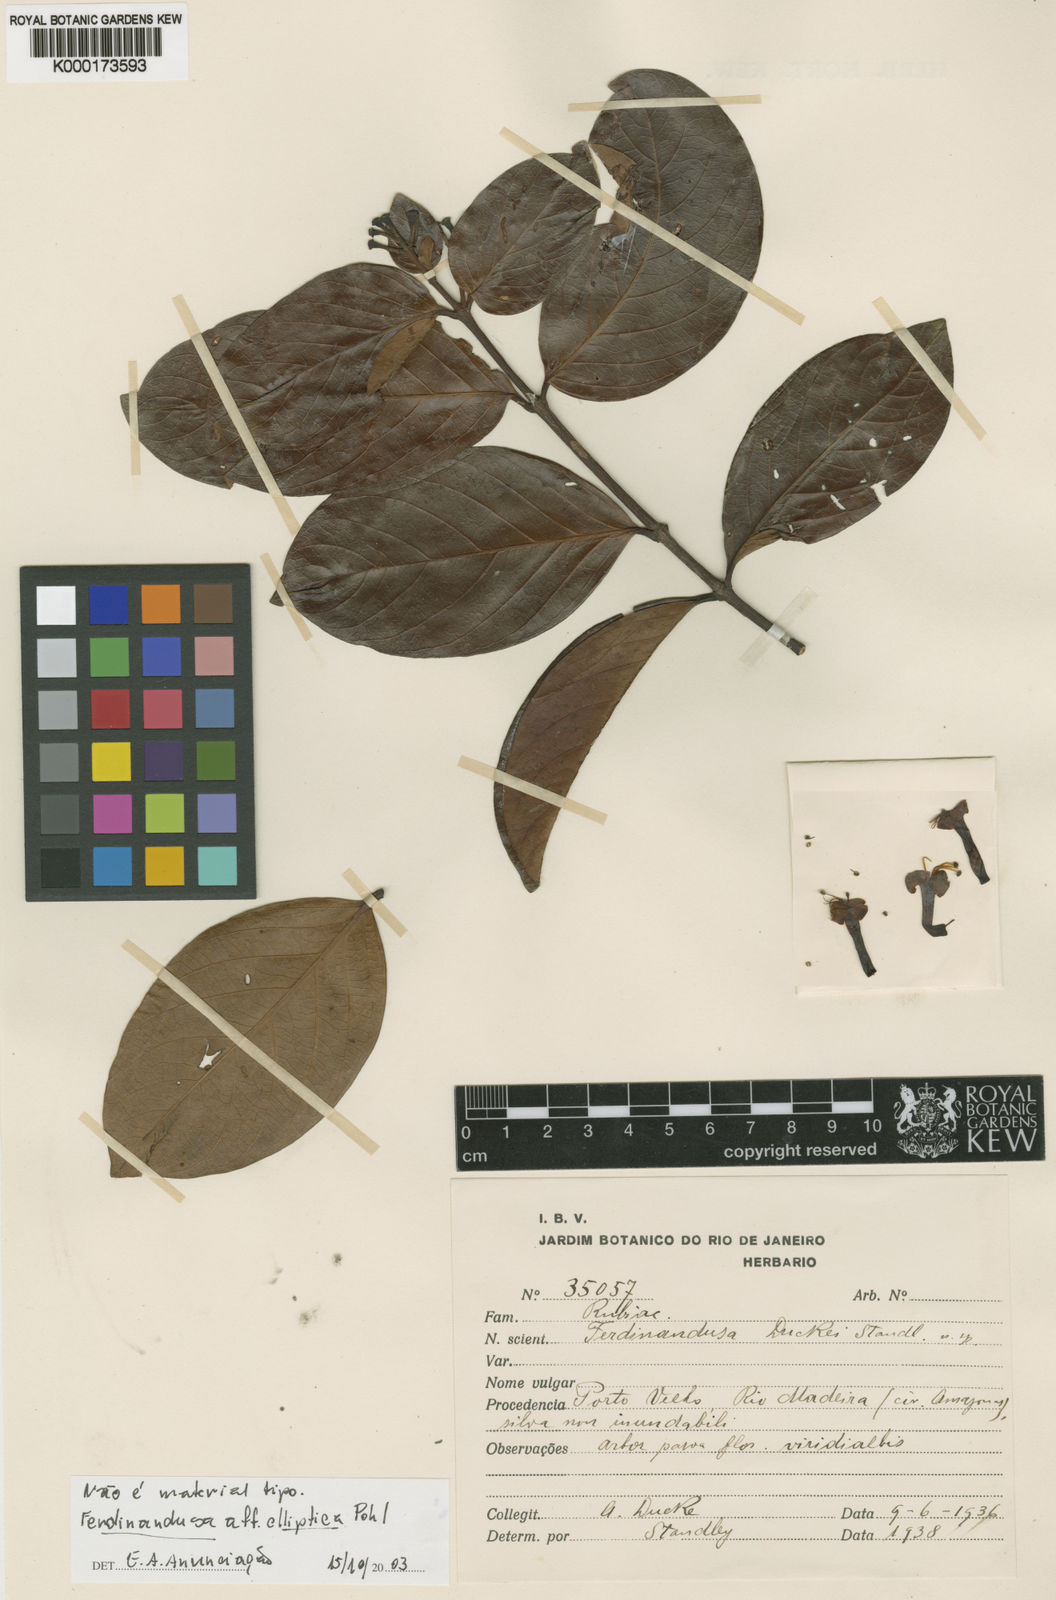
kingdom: Plantae
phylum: Tracheophyta
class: Magnoliopsida
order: Gentianales
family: Rubiaceae
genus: Ferdinandusa
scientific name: Ferdinandusa duckei
